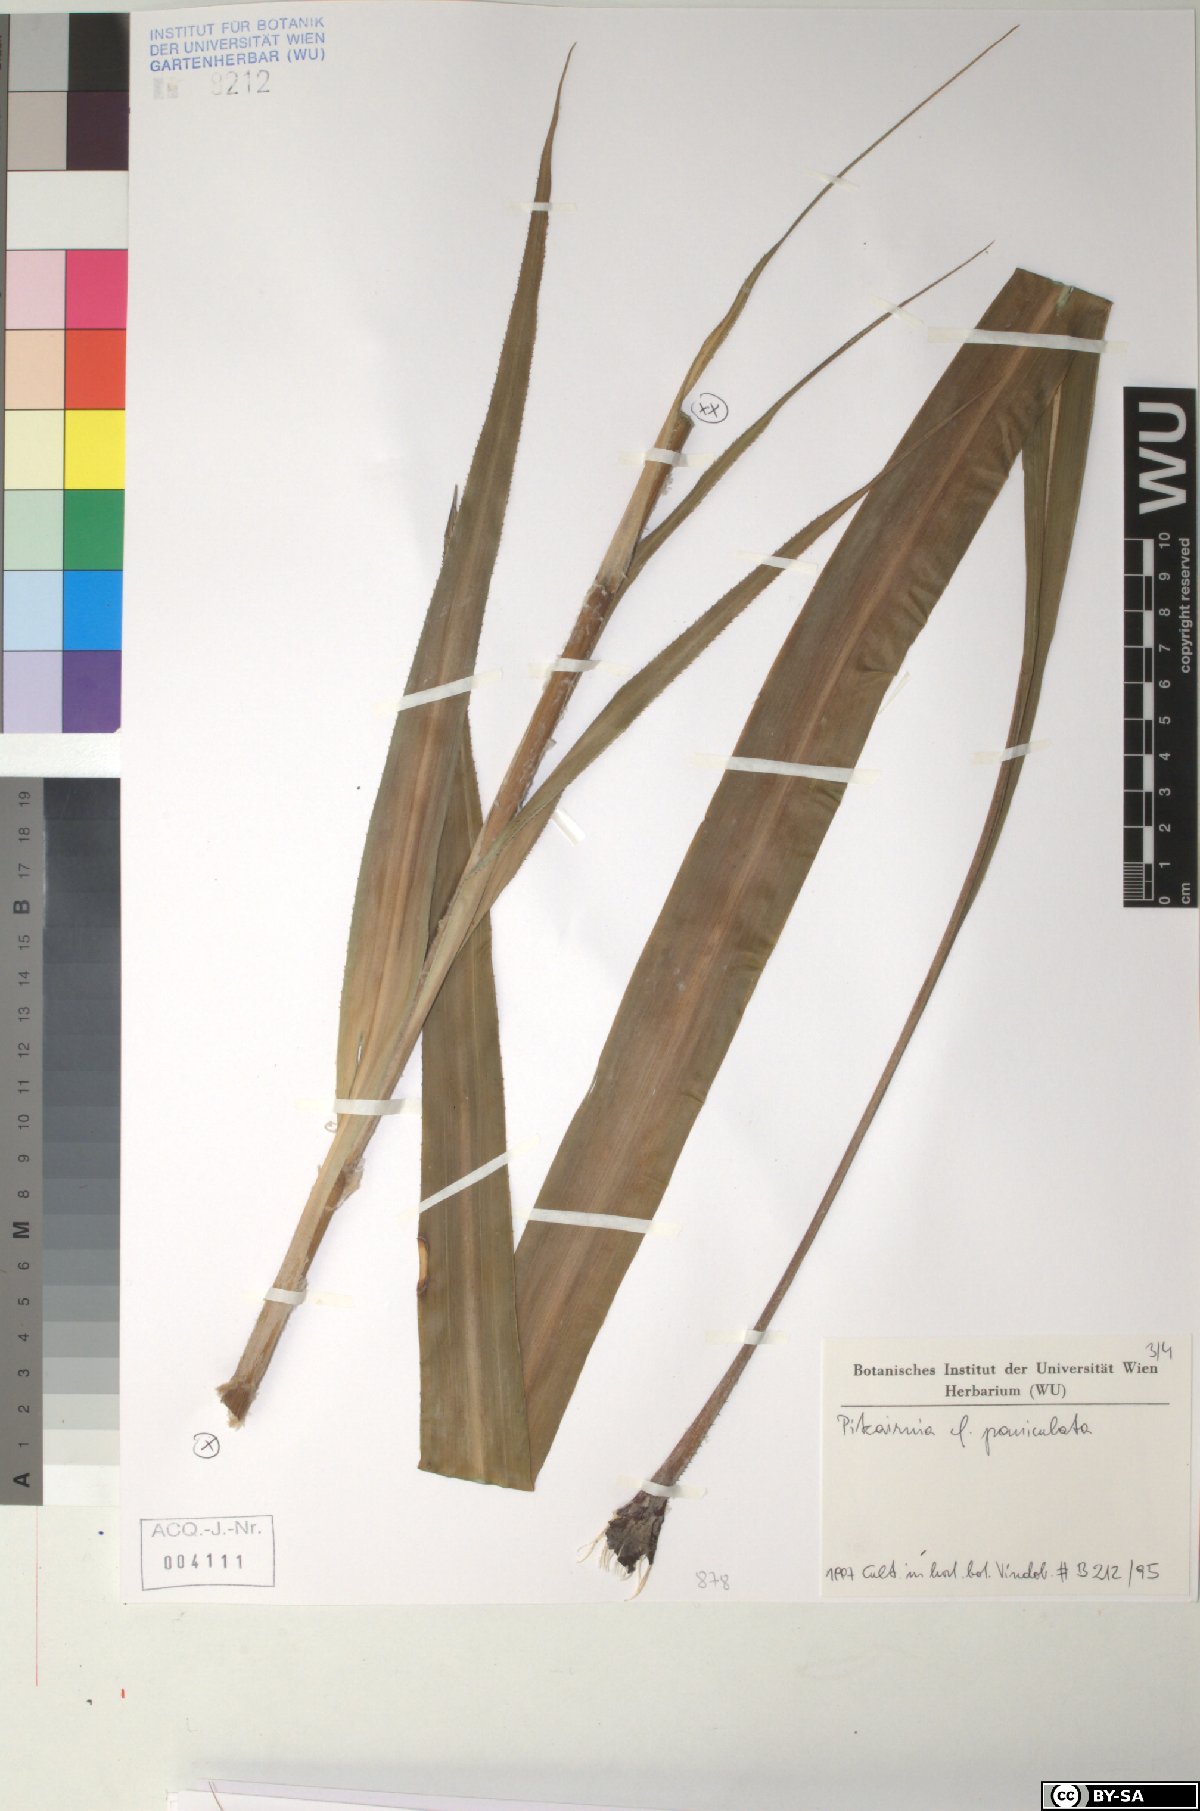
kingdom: Plantae
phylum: Tracheophyta
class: Liliopsida
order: Poales
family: Bromeliaceae
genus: Pitcairnia
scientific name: Pitcairnia paniculata
